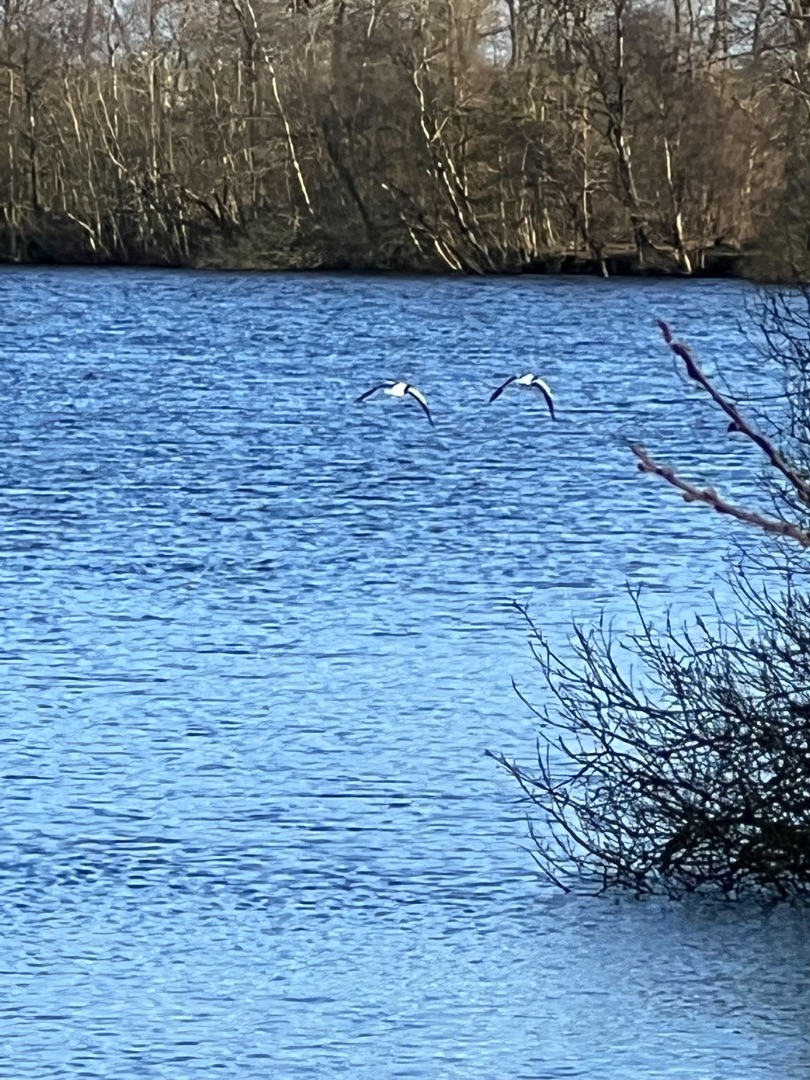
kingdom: Animalia
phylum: Chordata
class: Aves
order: Anseriformes
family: Anatidae
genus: Tadorna
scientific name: Tadorna tadorna
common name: Gravand
